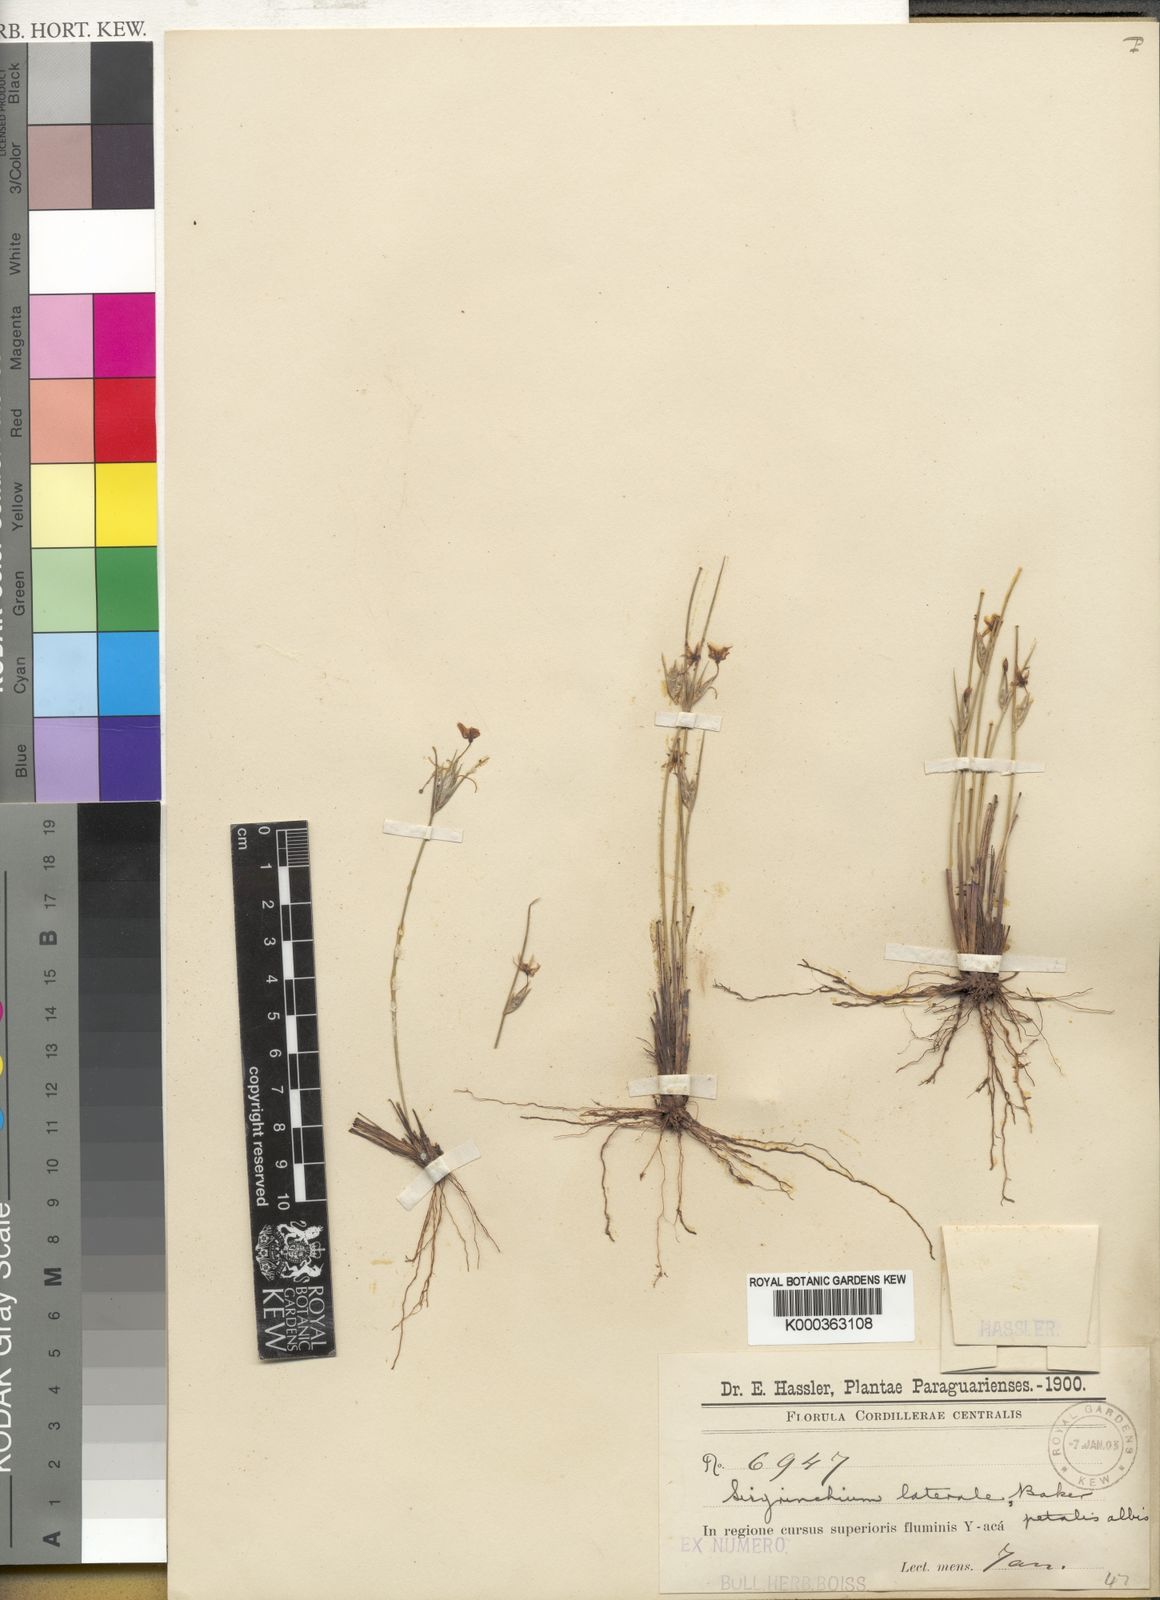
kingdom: Plantae
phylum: Tracheophyta
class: Liliopsida
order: Asparagales
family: Iridaceae
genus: Sisyrinchium
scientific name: Sisyrinchium laterale
